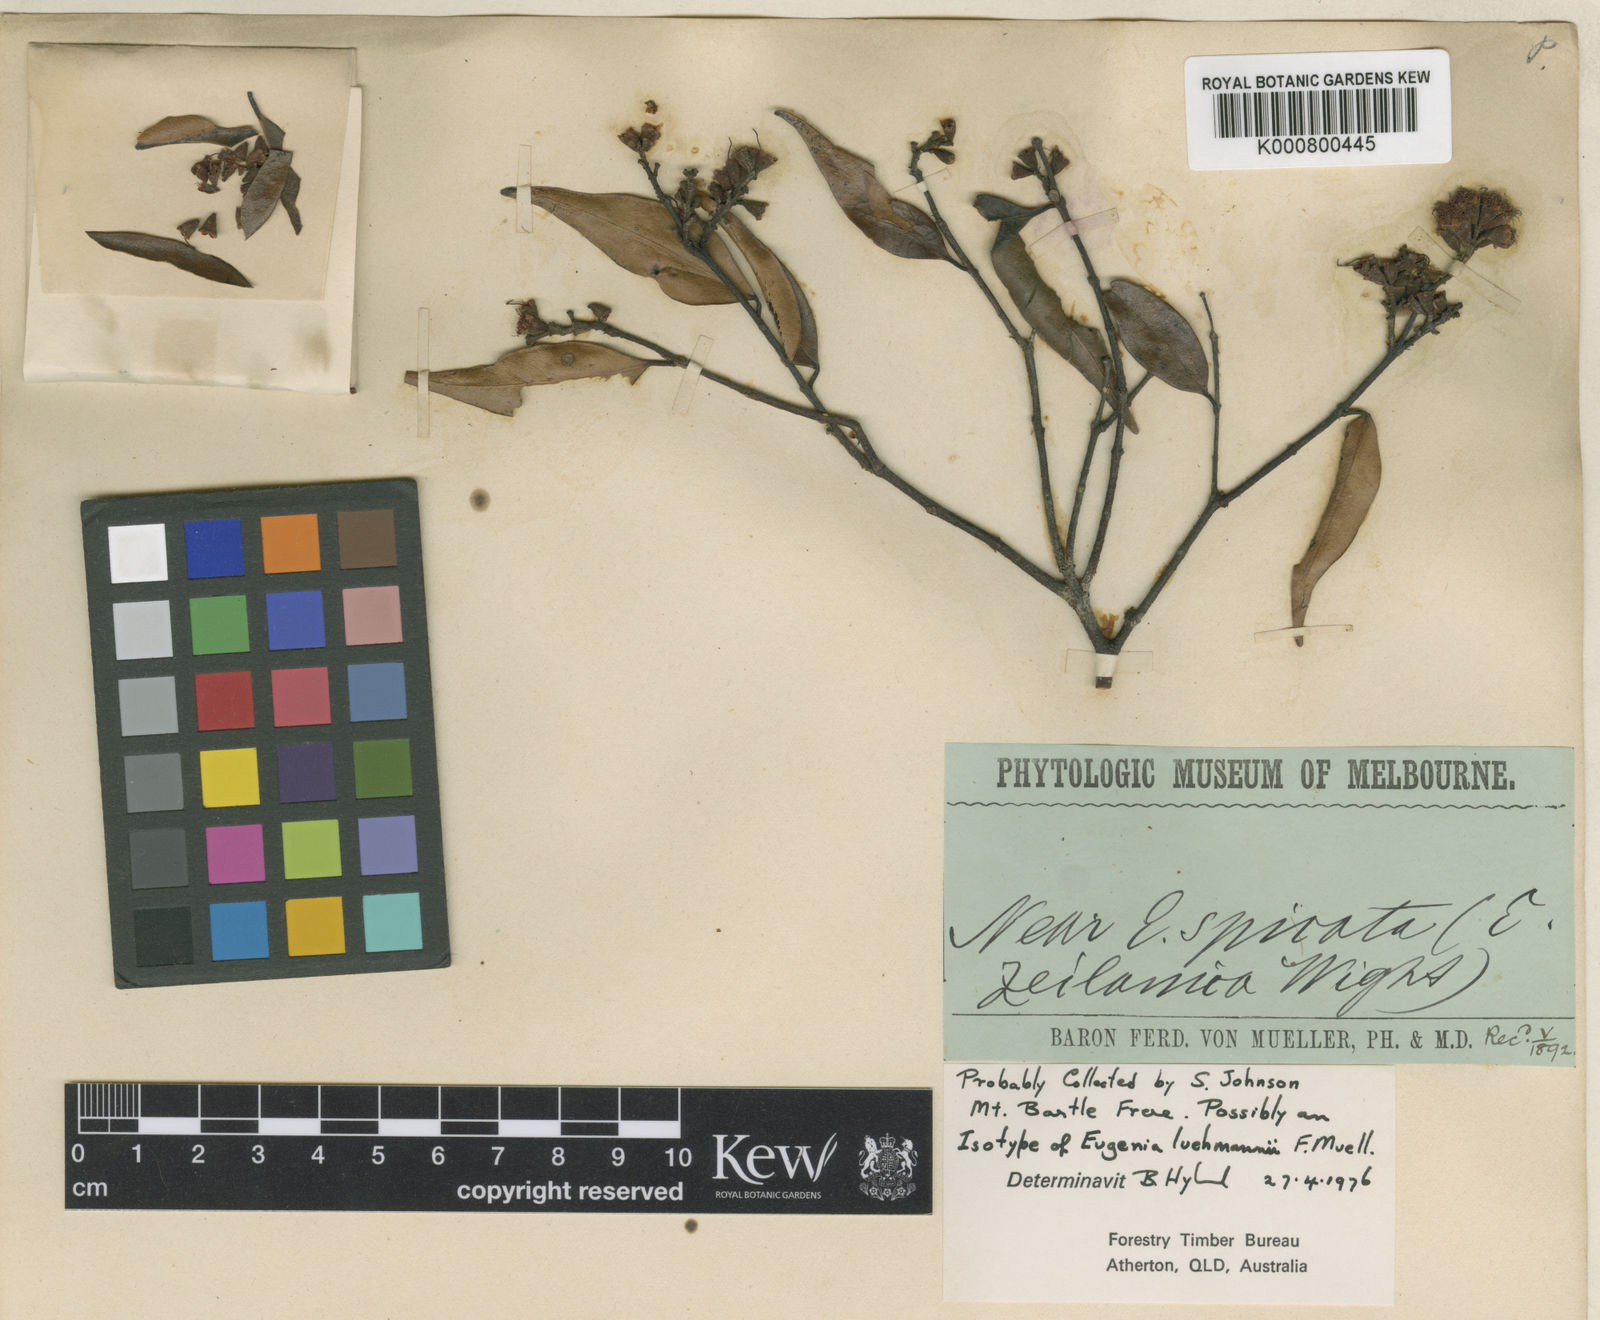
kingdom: Plantae
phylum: Tracheophyta
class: Magnoliopsida
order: Myrtales
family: Myrtaceae
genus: Syzygium
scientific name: Syzygium luehmannii
